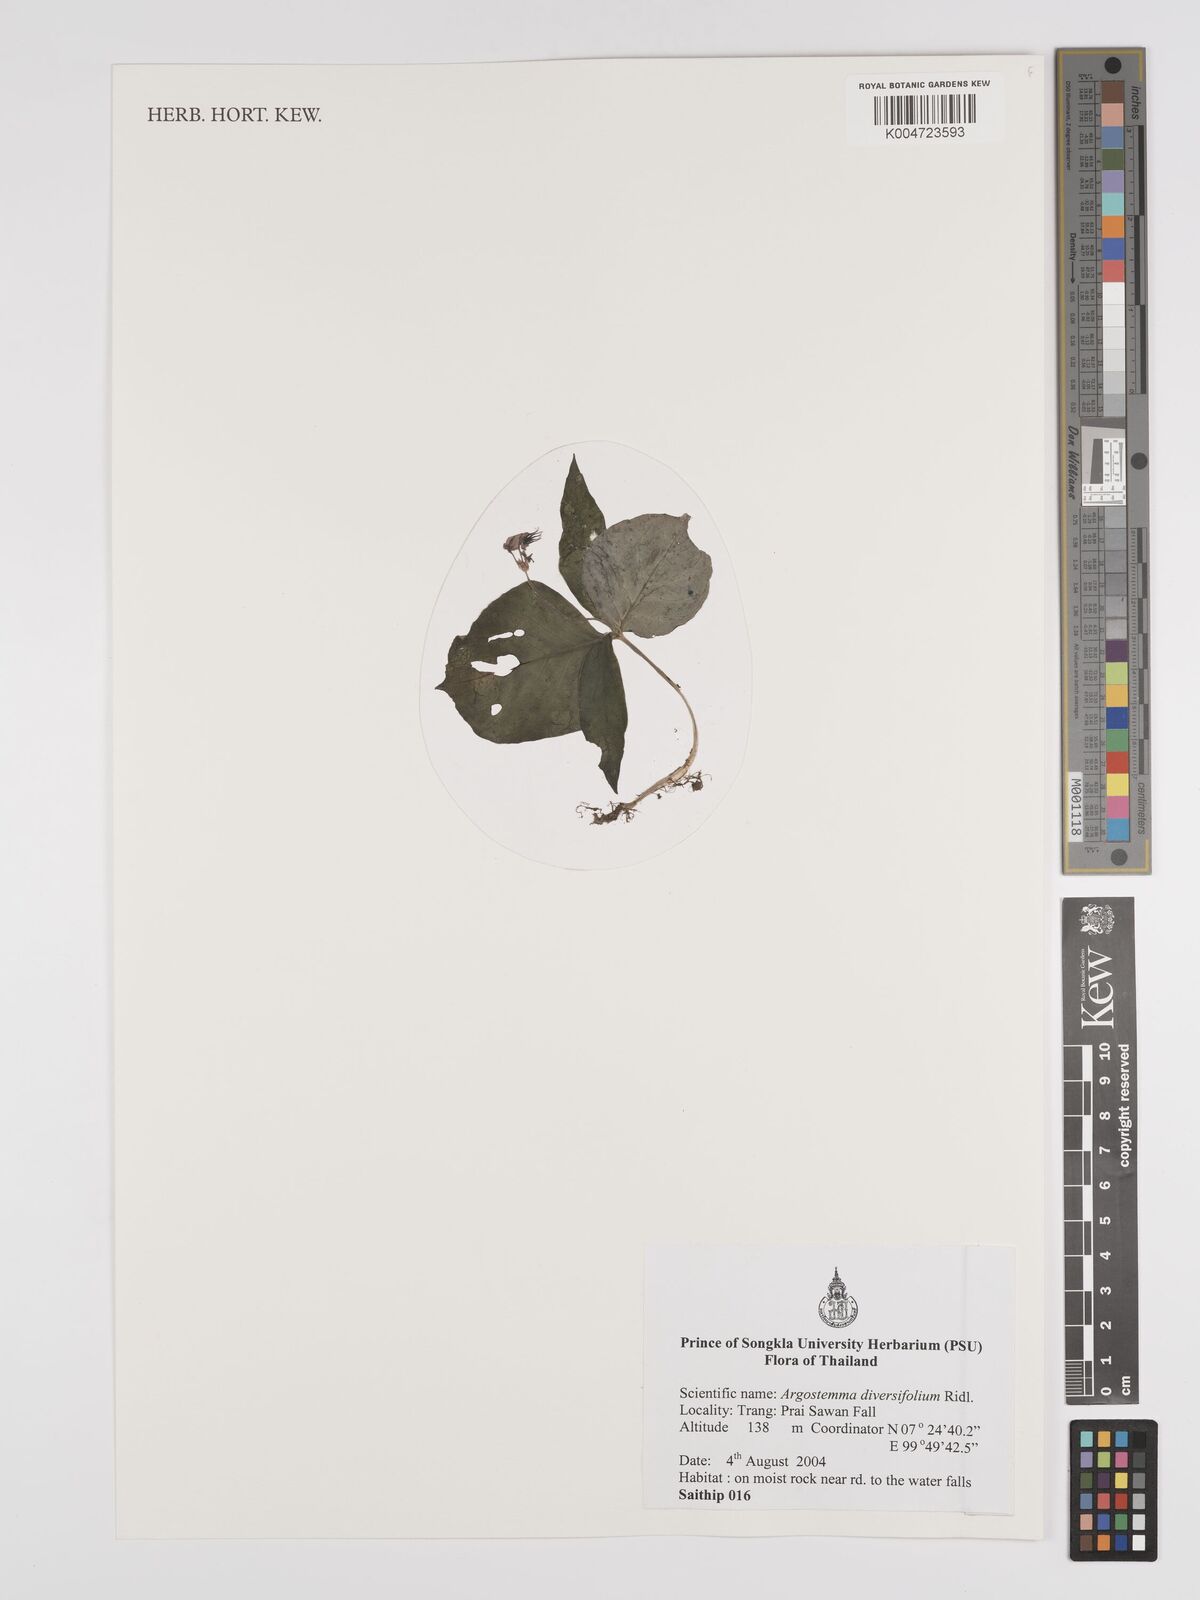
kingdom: Plantae
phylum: Tracheophyta
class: Magnoliopsida
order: Gentianales
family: Rubiaceae
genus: Argostemma
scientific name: Argostemma diversifolium
